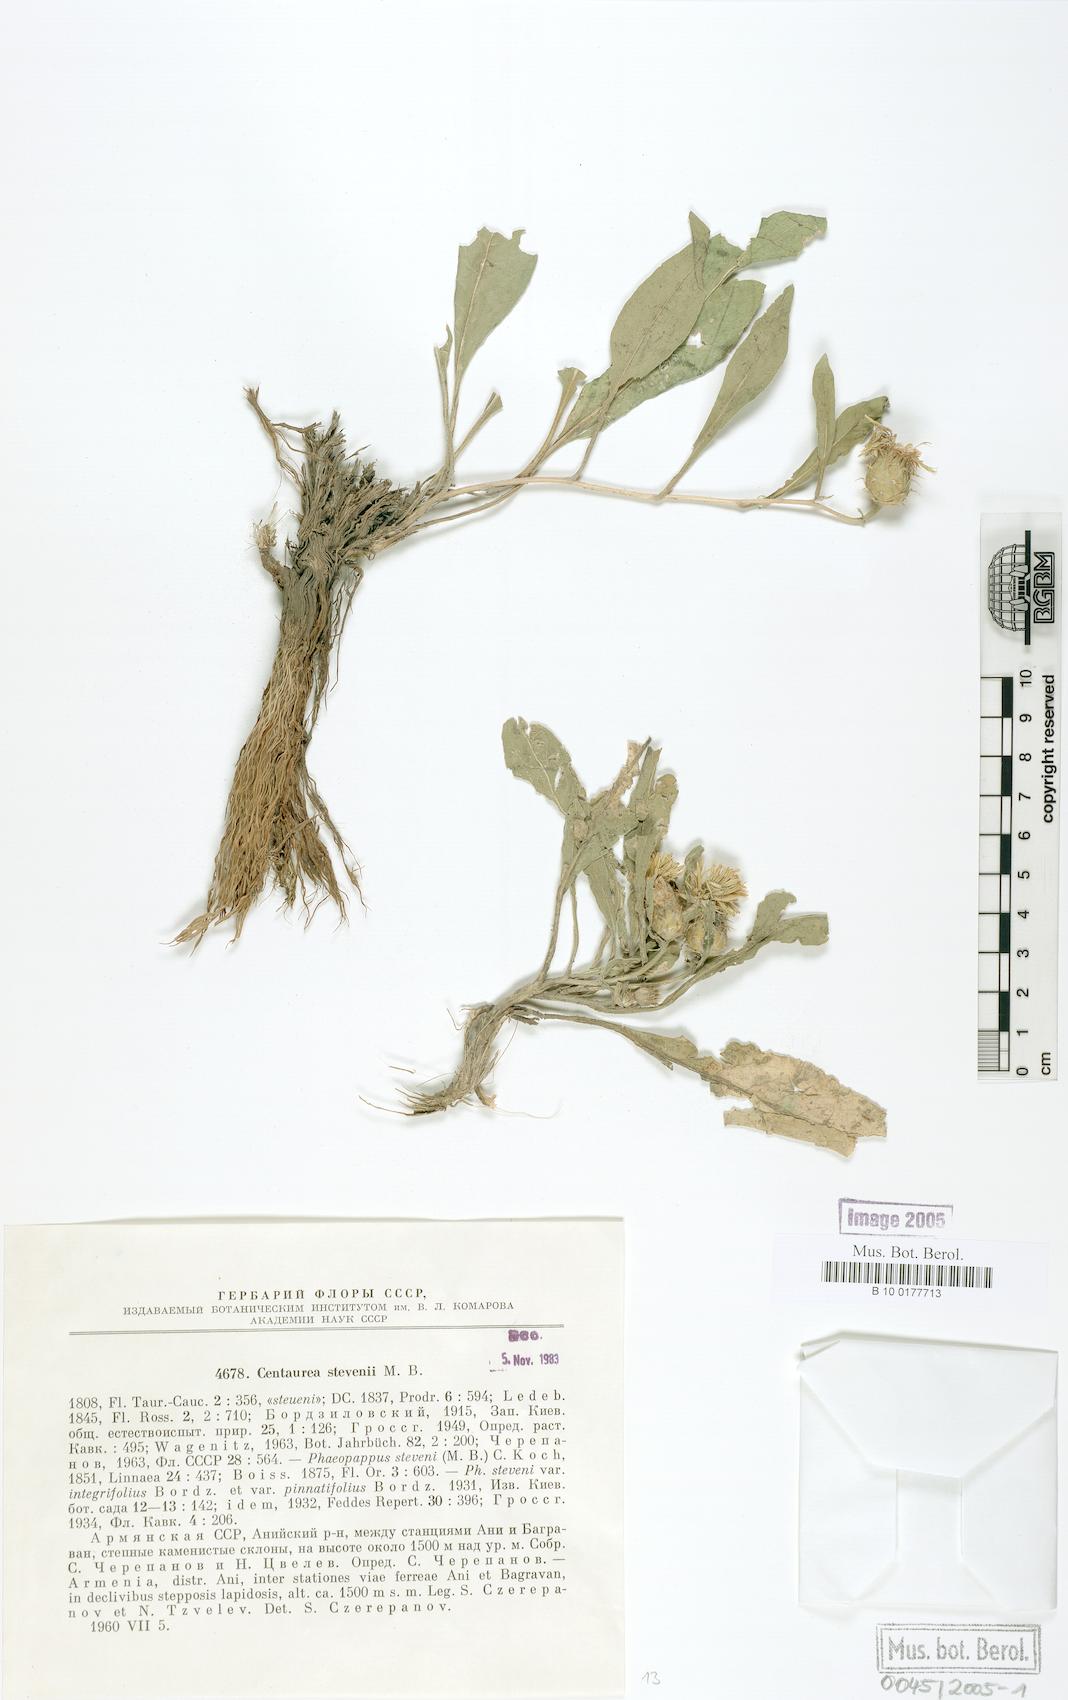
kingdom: Plantae
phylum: Tracheophyta
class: Magnoliopsida
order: Asterales
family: Asteraceae
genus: Centaurea
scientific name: Centaurea stevenii
